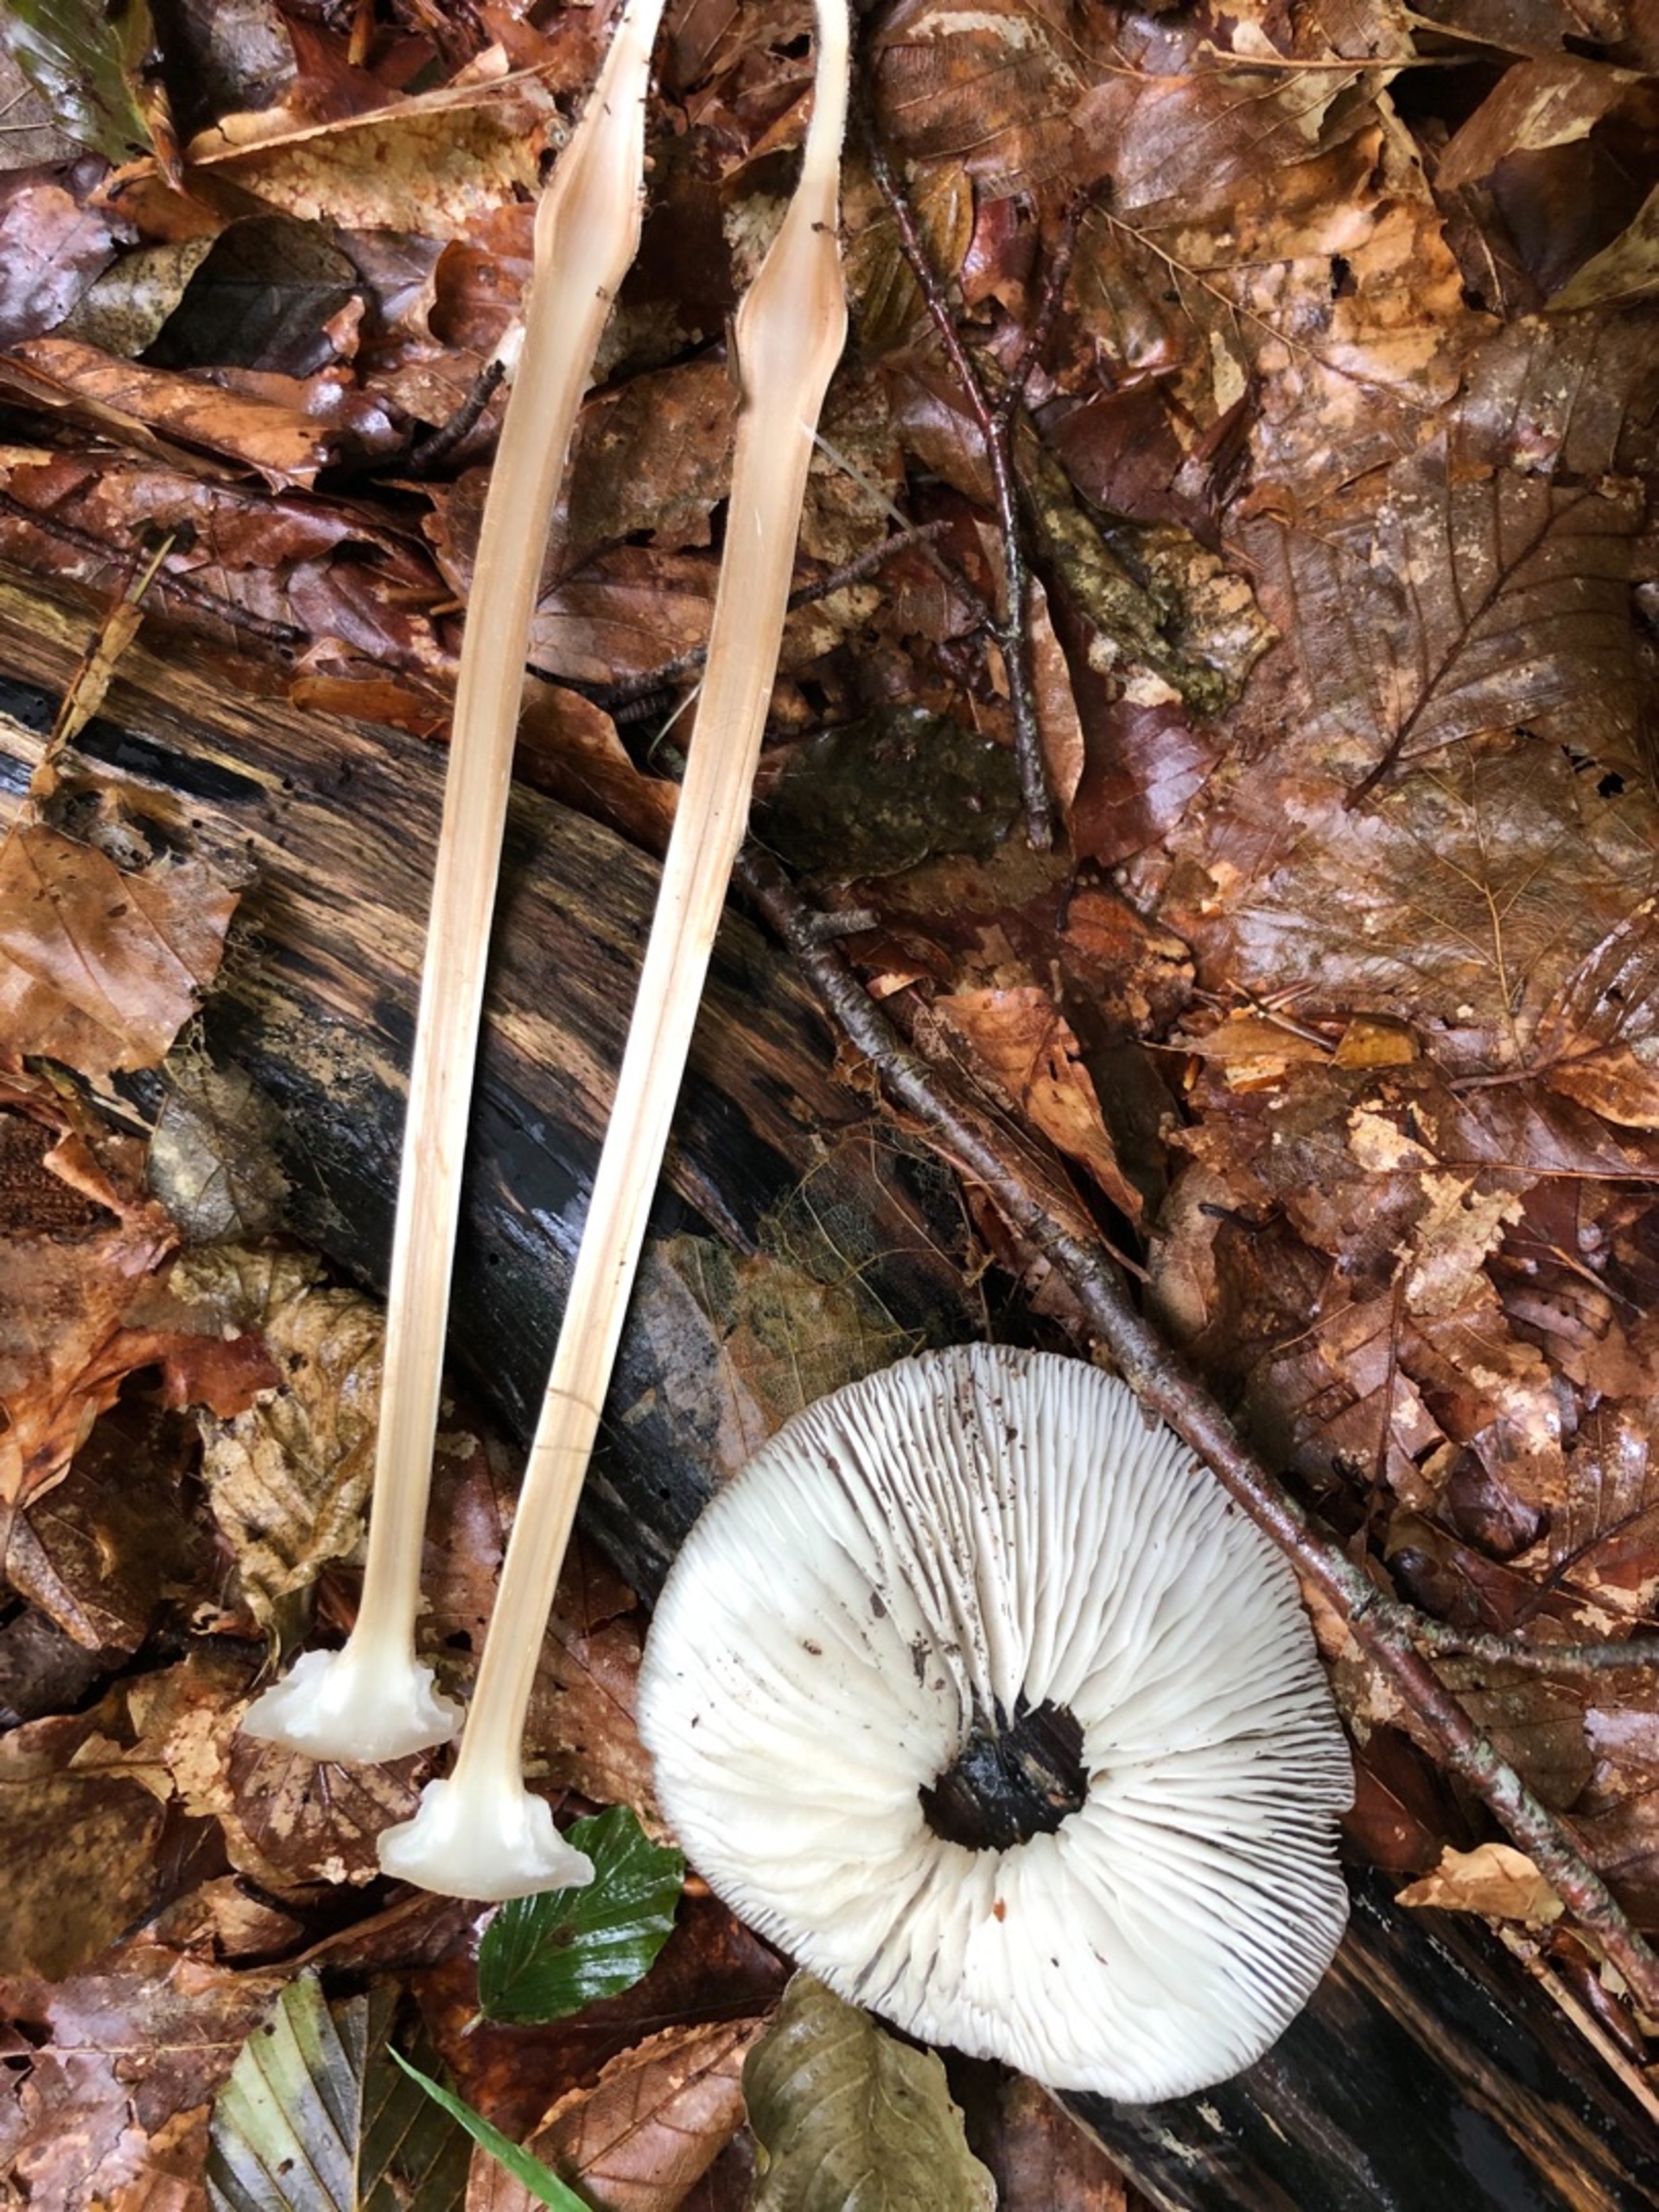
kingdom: Fungi
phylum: Basidiomycota
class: Agaricomycetes
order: Agaricales
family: Physalacriaceae
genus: Hymenopellis
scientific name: Hymenopellis radicata
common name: Almindelig pælerodshat
